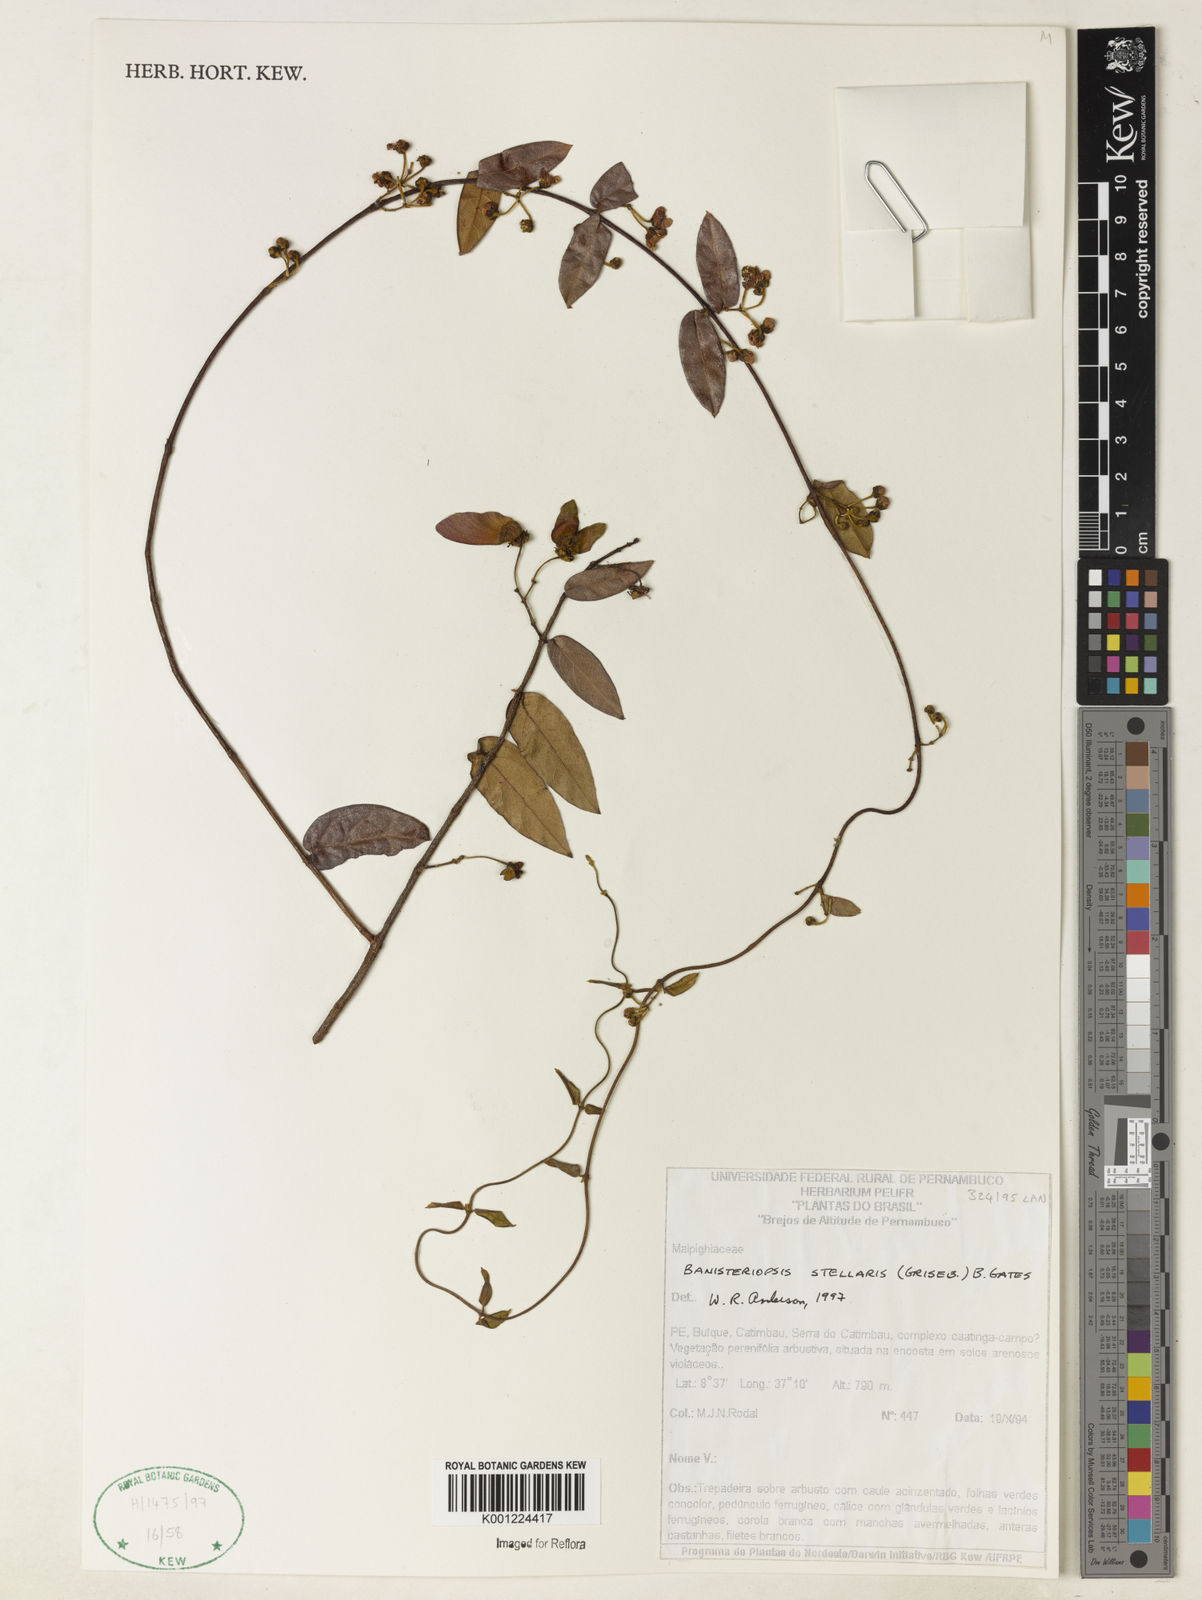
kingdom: Plantae
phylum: Tracheophyta
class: Magnoliopsida
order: Malpighiales
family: Malpighiaceae
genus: Banisteriopsis
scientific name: Banisteriopsis stellaris
